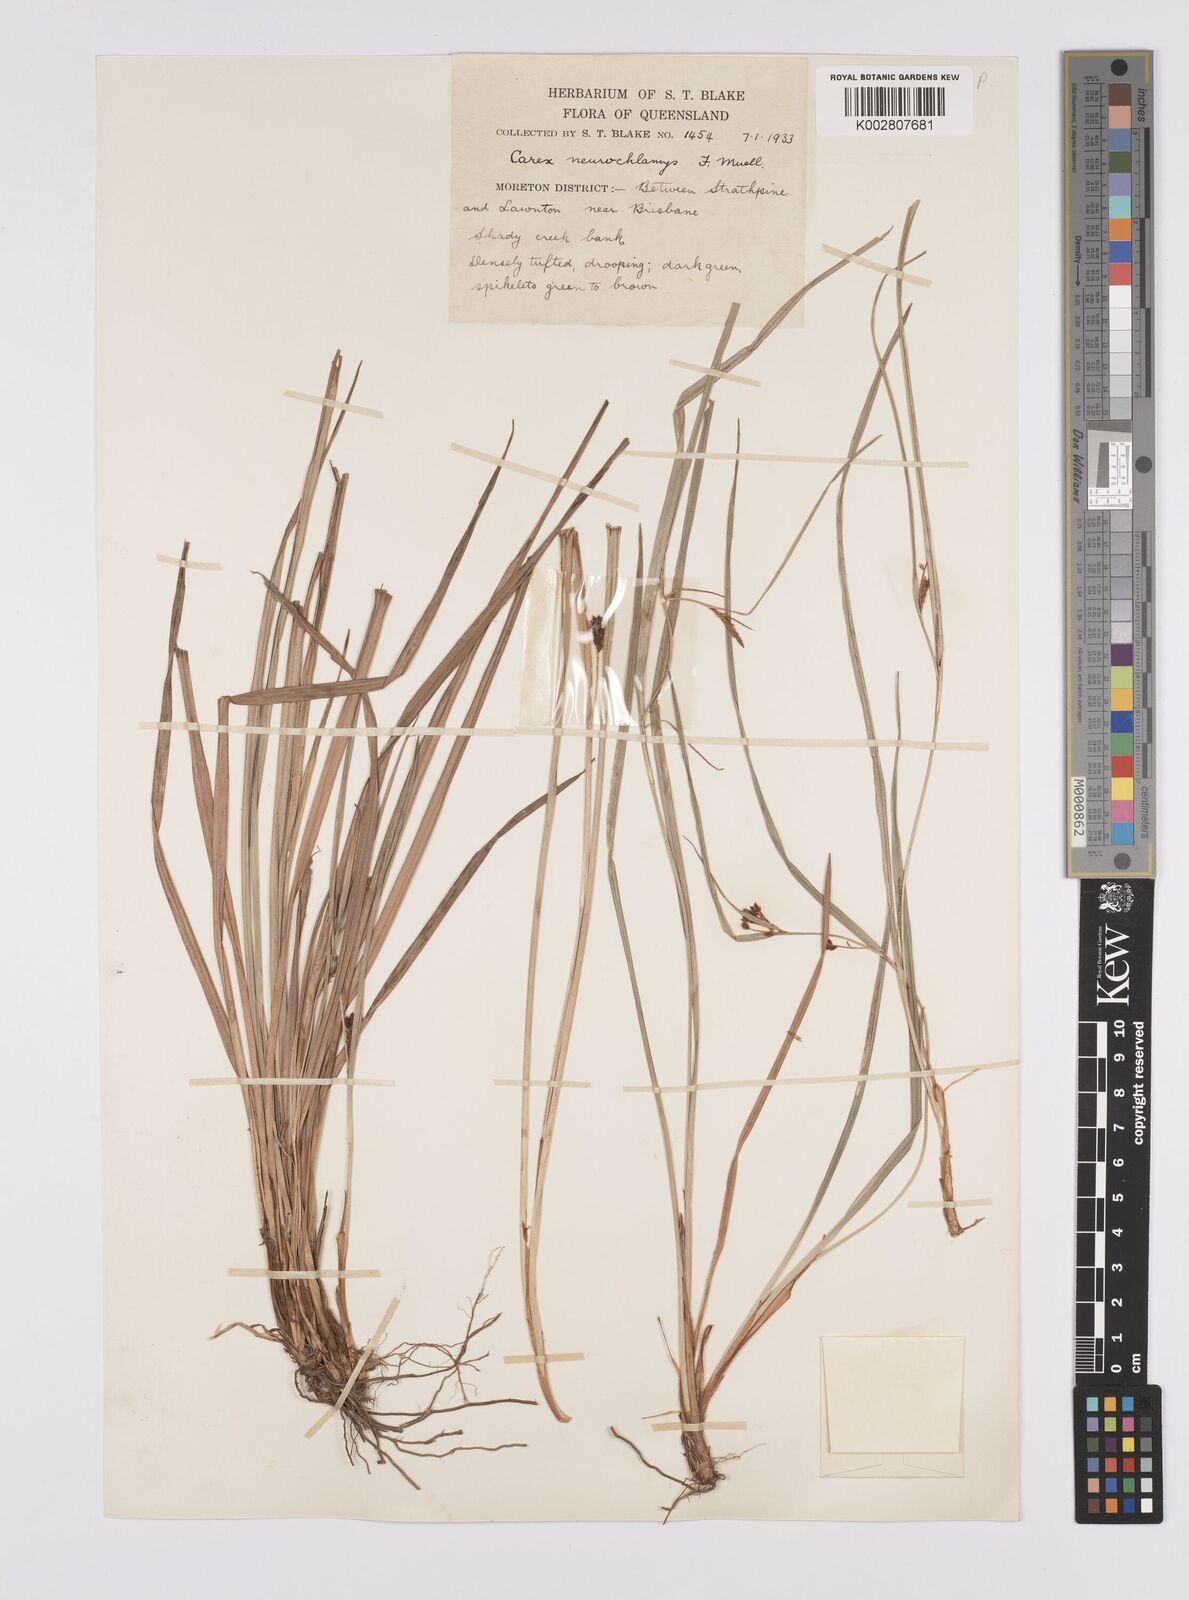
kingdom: Plantae
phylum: Tracheophyta
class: Liliopsida
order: Poales
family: Cyperaceae
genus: Carex
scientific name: Carex maculata
